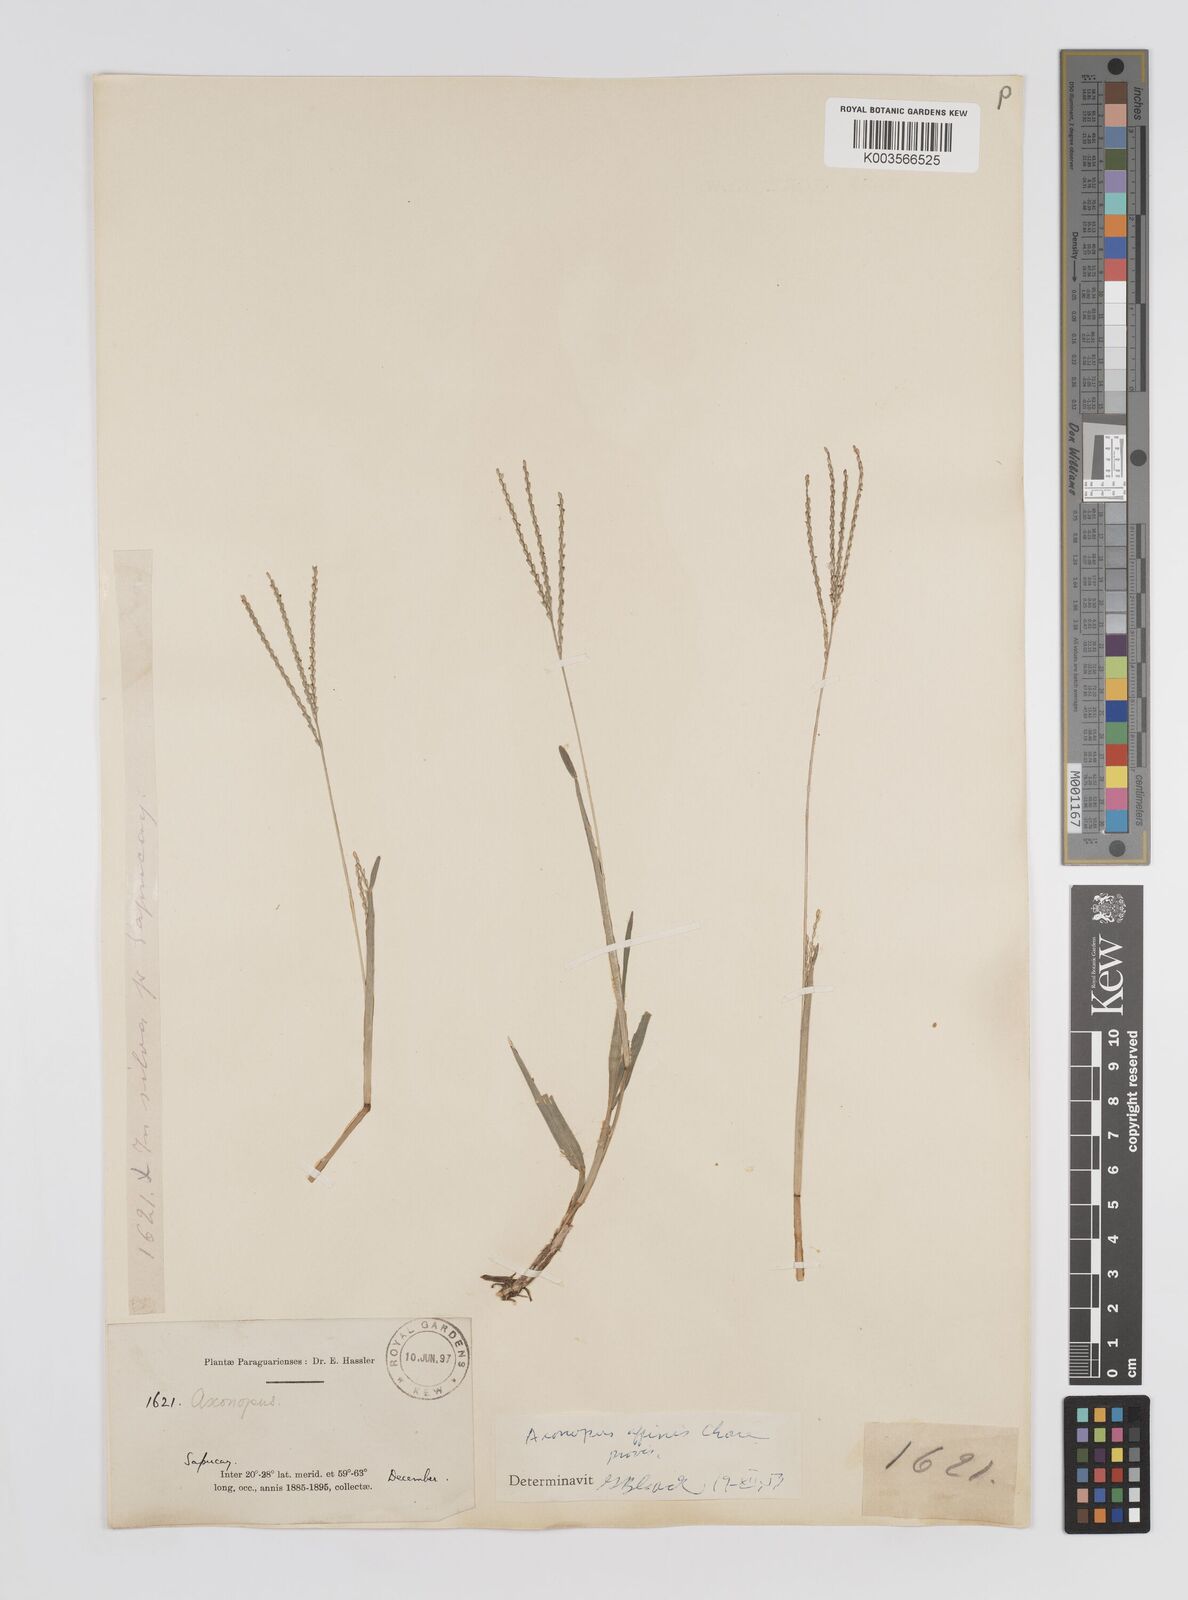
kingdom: Plantae
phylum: Tracheophyta
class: Liliopsida
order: Poales
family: Poaceae
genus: Axonopus
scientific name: Axonopus fissifolius
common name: Common carpetgrass
